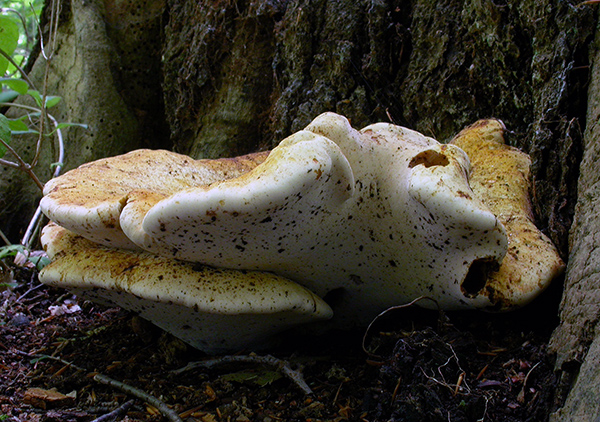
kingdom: Fungi
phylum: Basidiomycota
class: Agaricomycetes
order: Polyporales
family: Fomitopsidaceae
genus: Buglossoporus
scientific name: Buglossoporus quercinus
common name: egetunge
